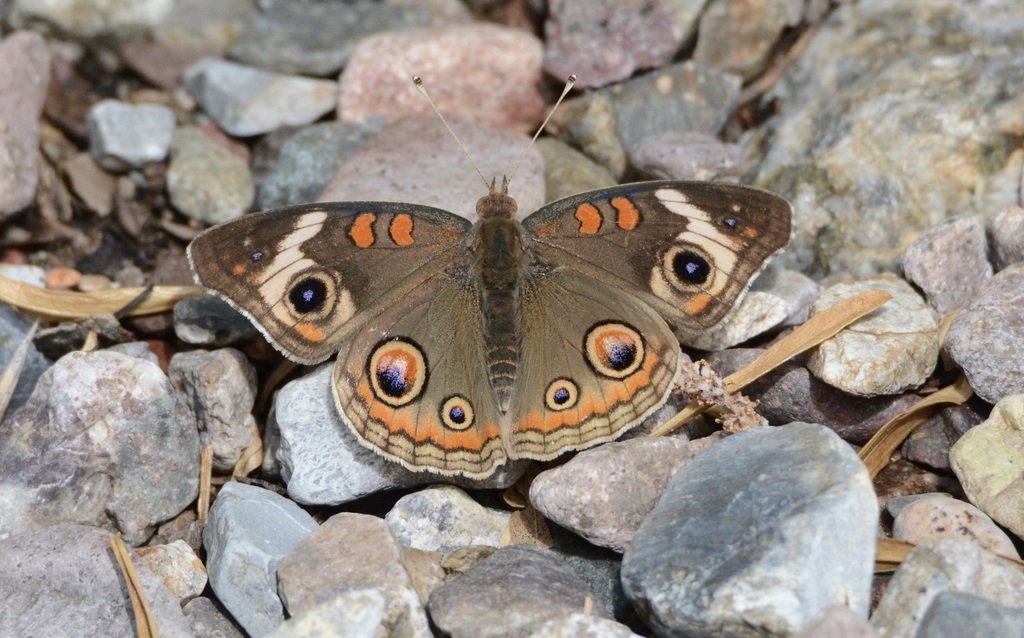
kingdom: Animalia
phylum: Arthropoda
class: Insecta
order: Lepidoptera
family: Nymphalidae
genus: Junonia
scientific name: Junonia coenia
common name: Common Buckeye
